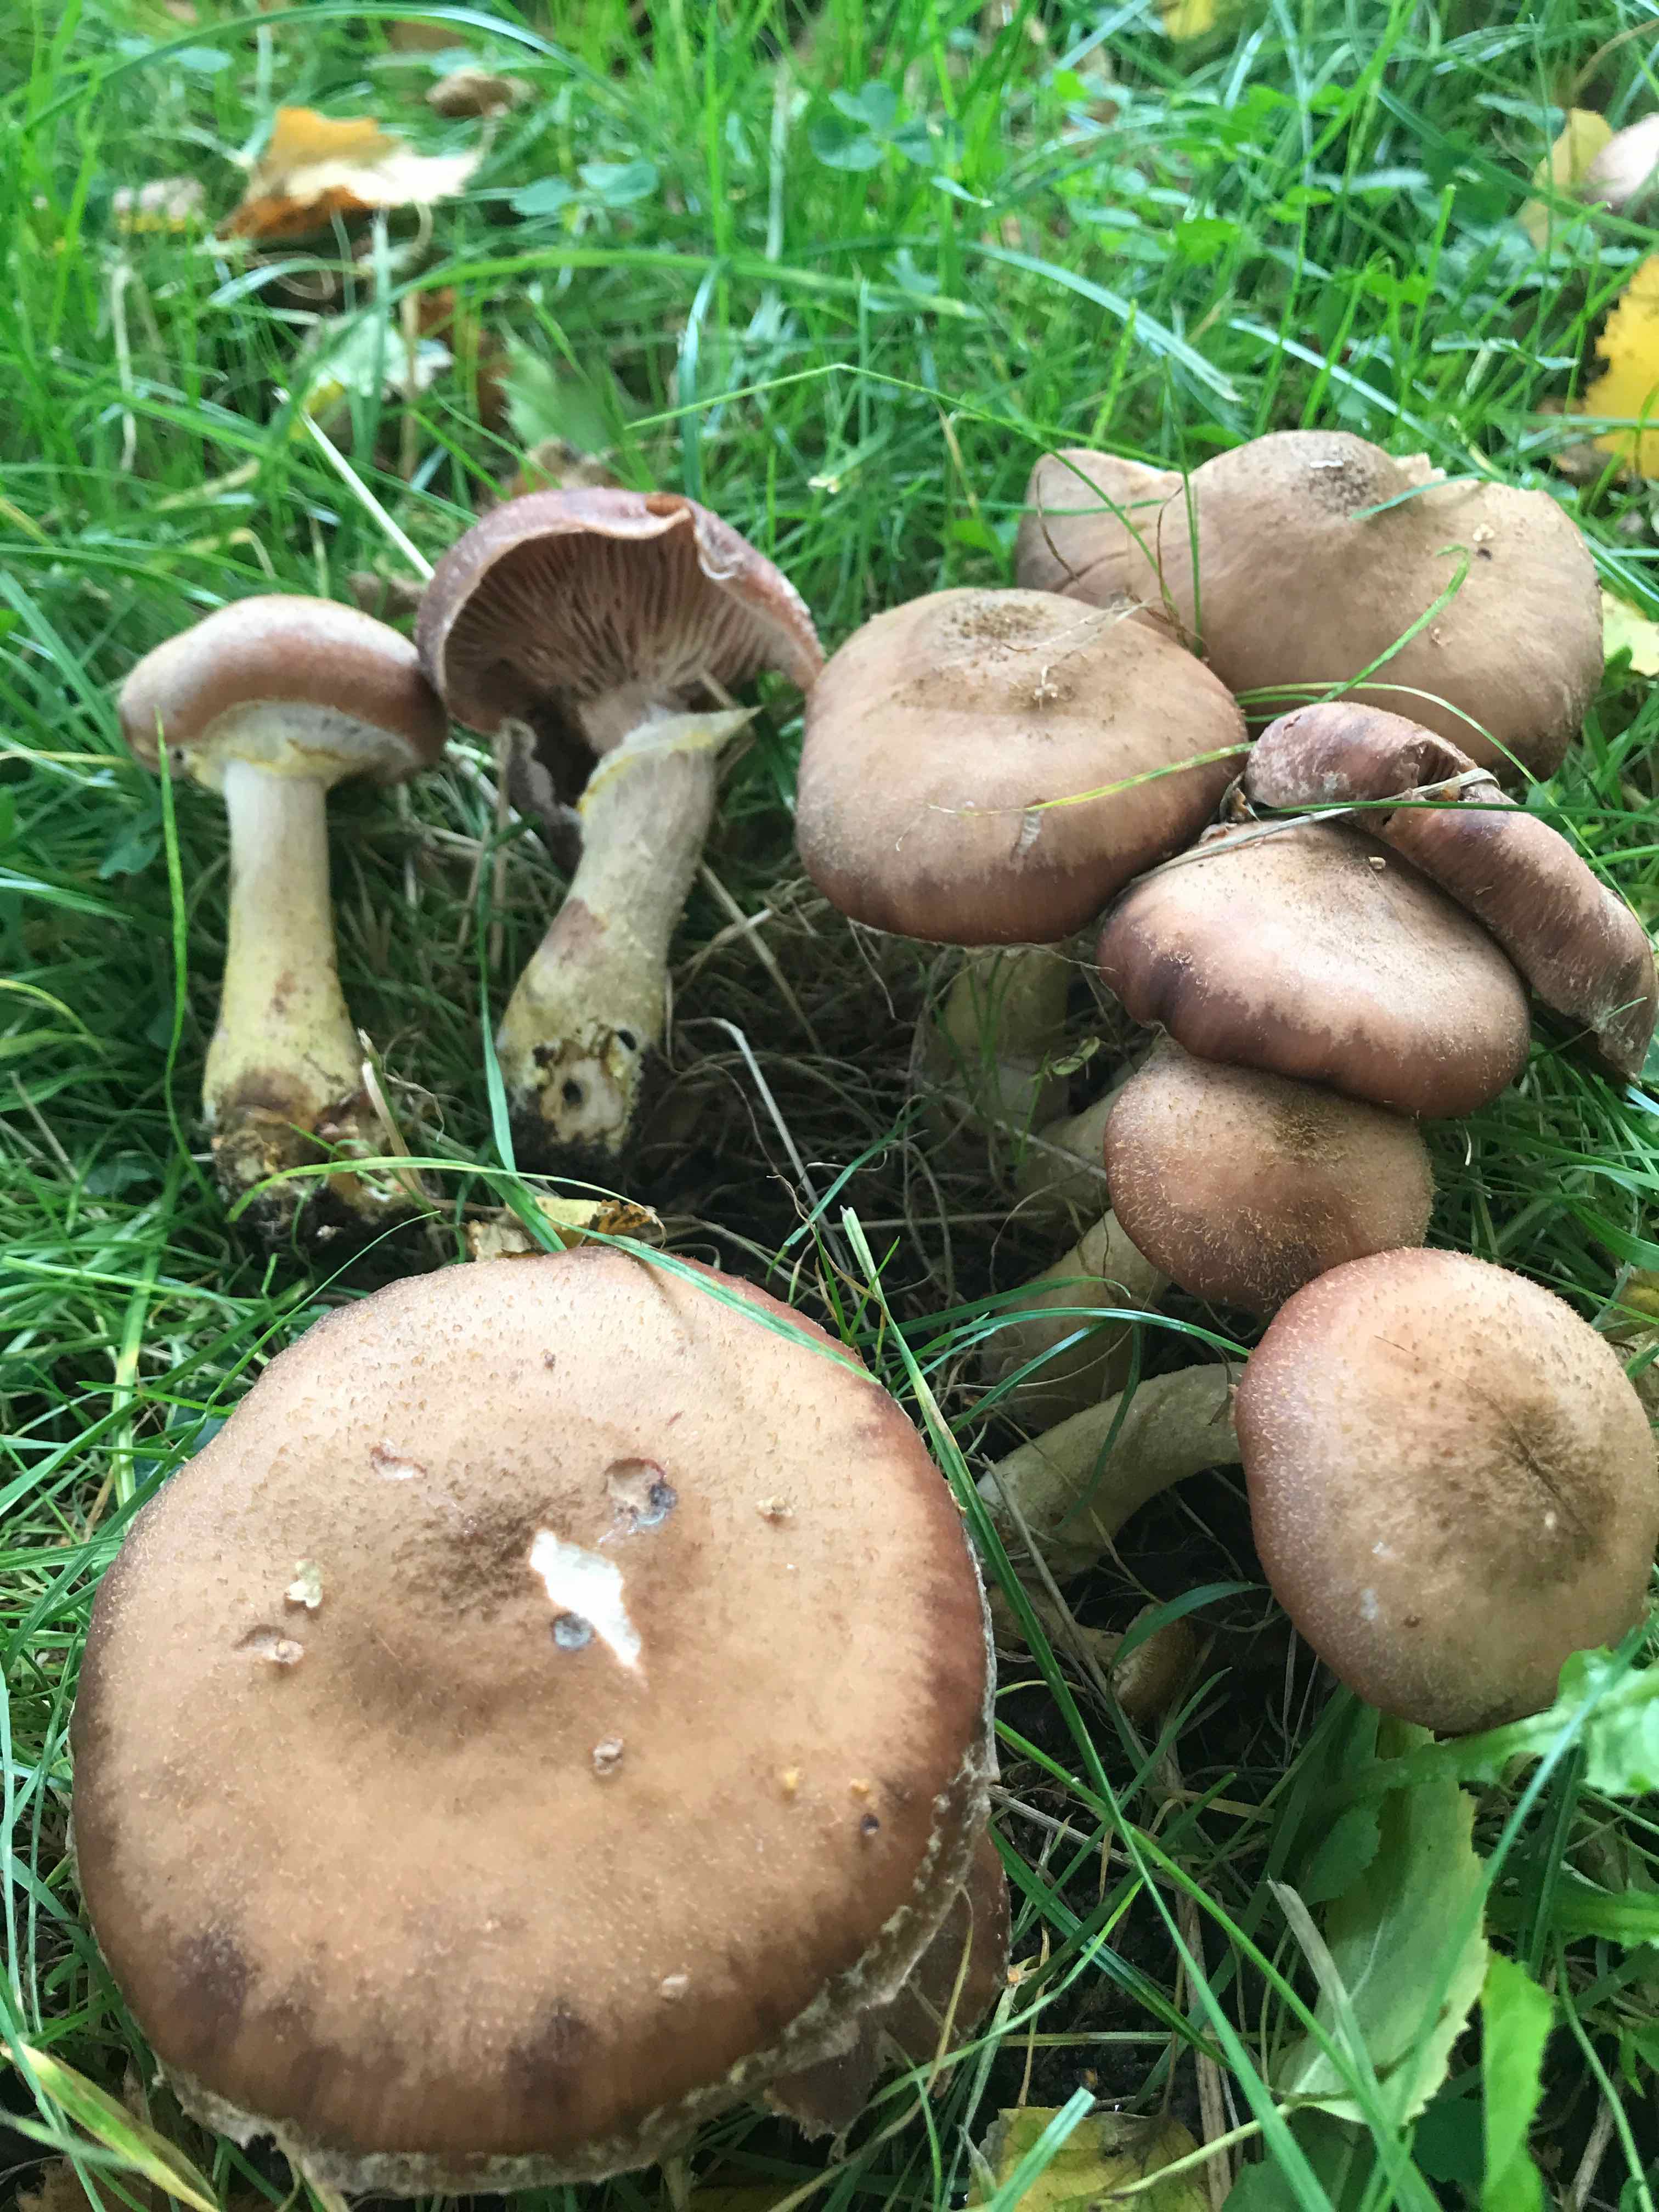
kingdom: Fungi
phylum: Basidiomycota
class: Agaricomycetes
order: Agaricales
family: Physalacriaceae
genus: Armillaria
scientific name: Armillaria lutea
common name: køllestokket honningsvamp
